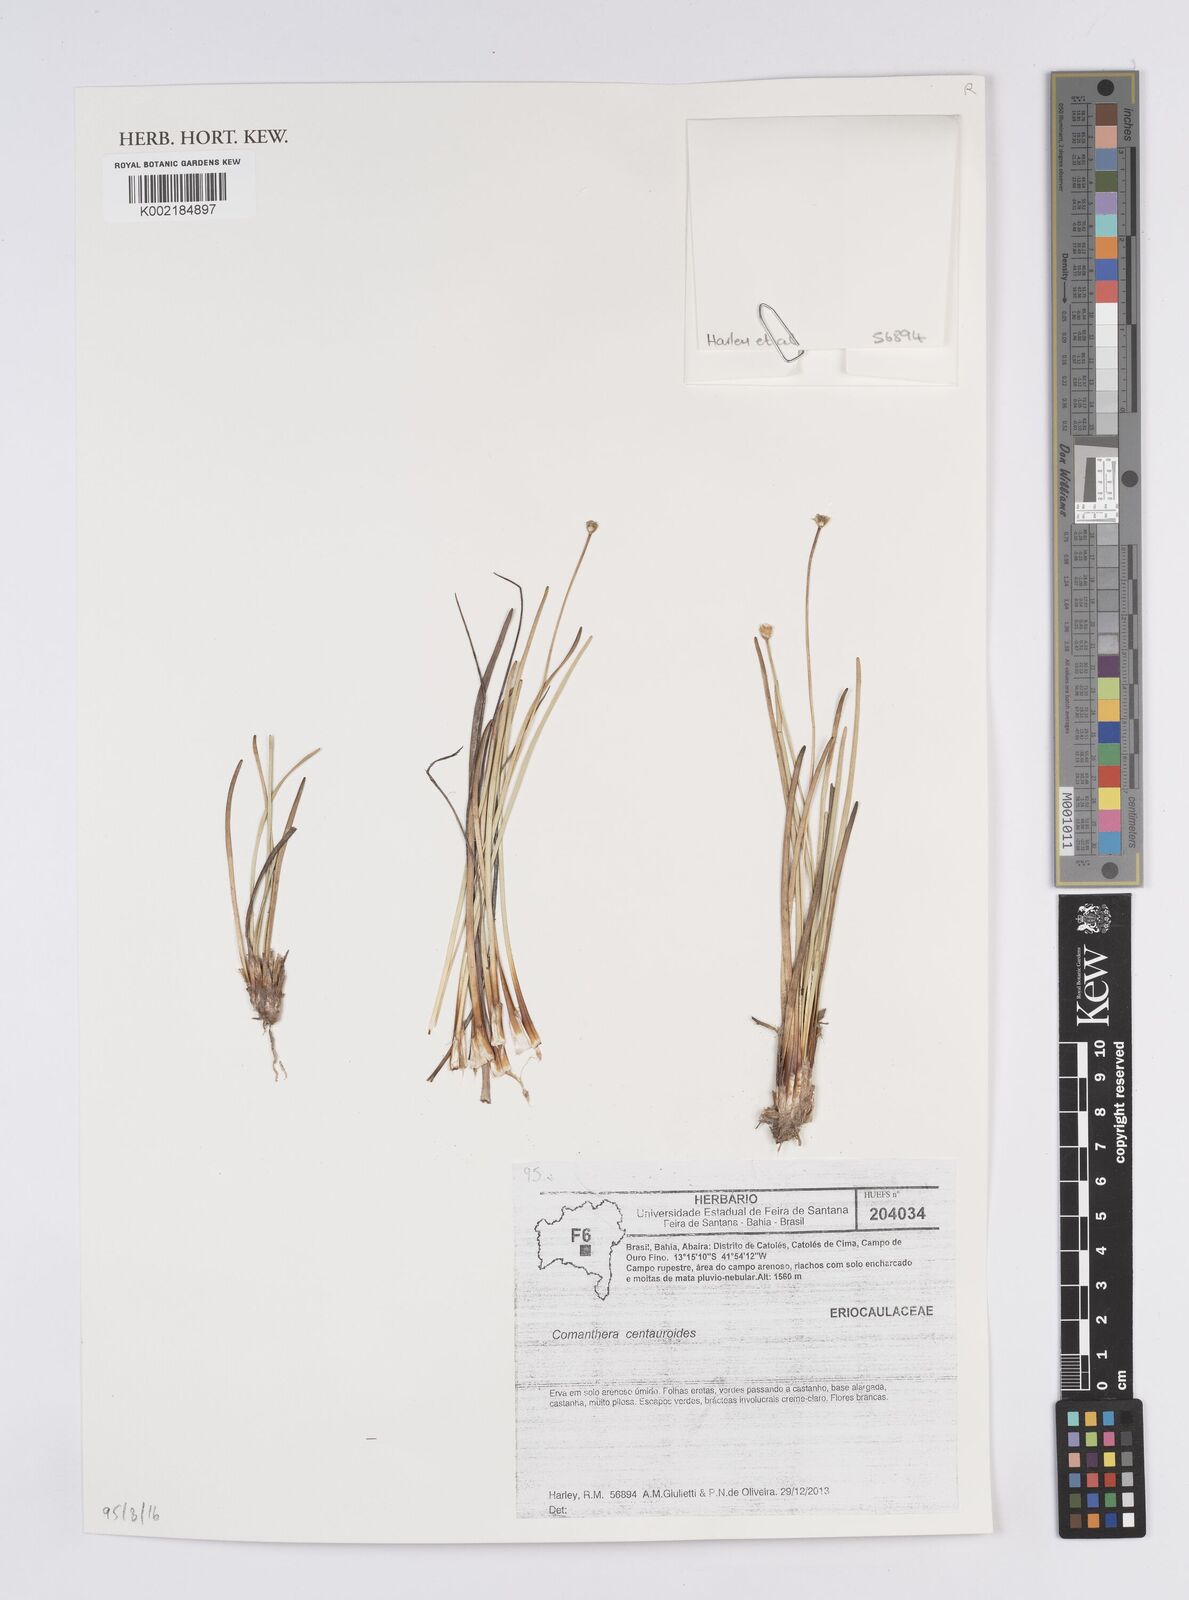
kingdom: Plantae
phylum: Tracheophyta
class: Liliopsida
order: Poales
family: Eriocaulaceae
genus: Comanthera
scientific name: Comanthera centauroides
